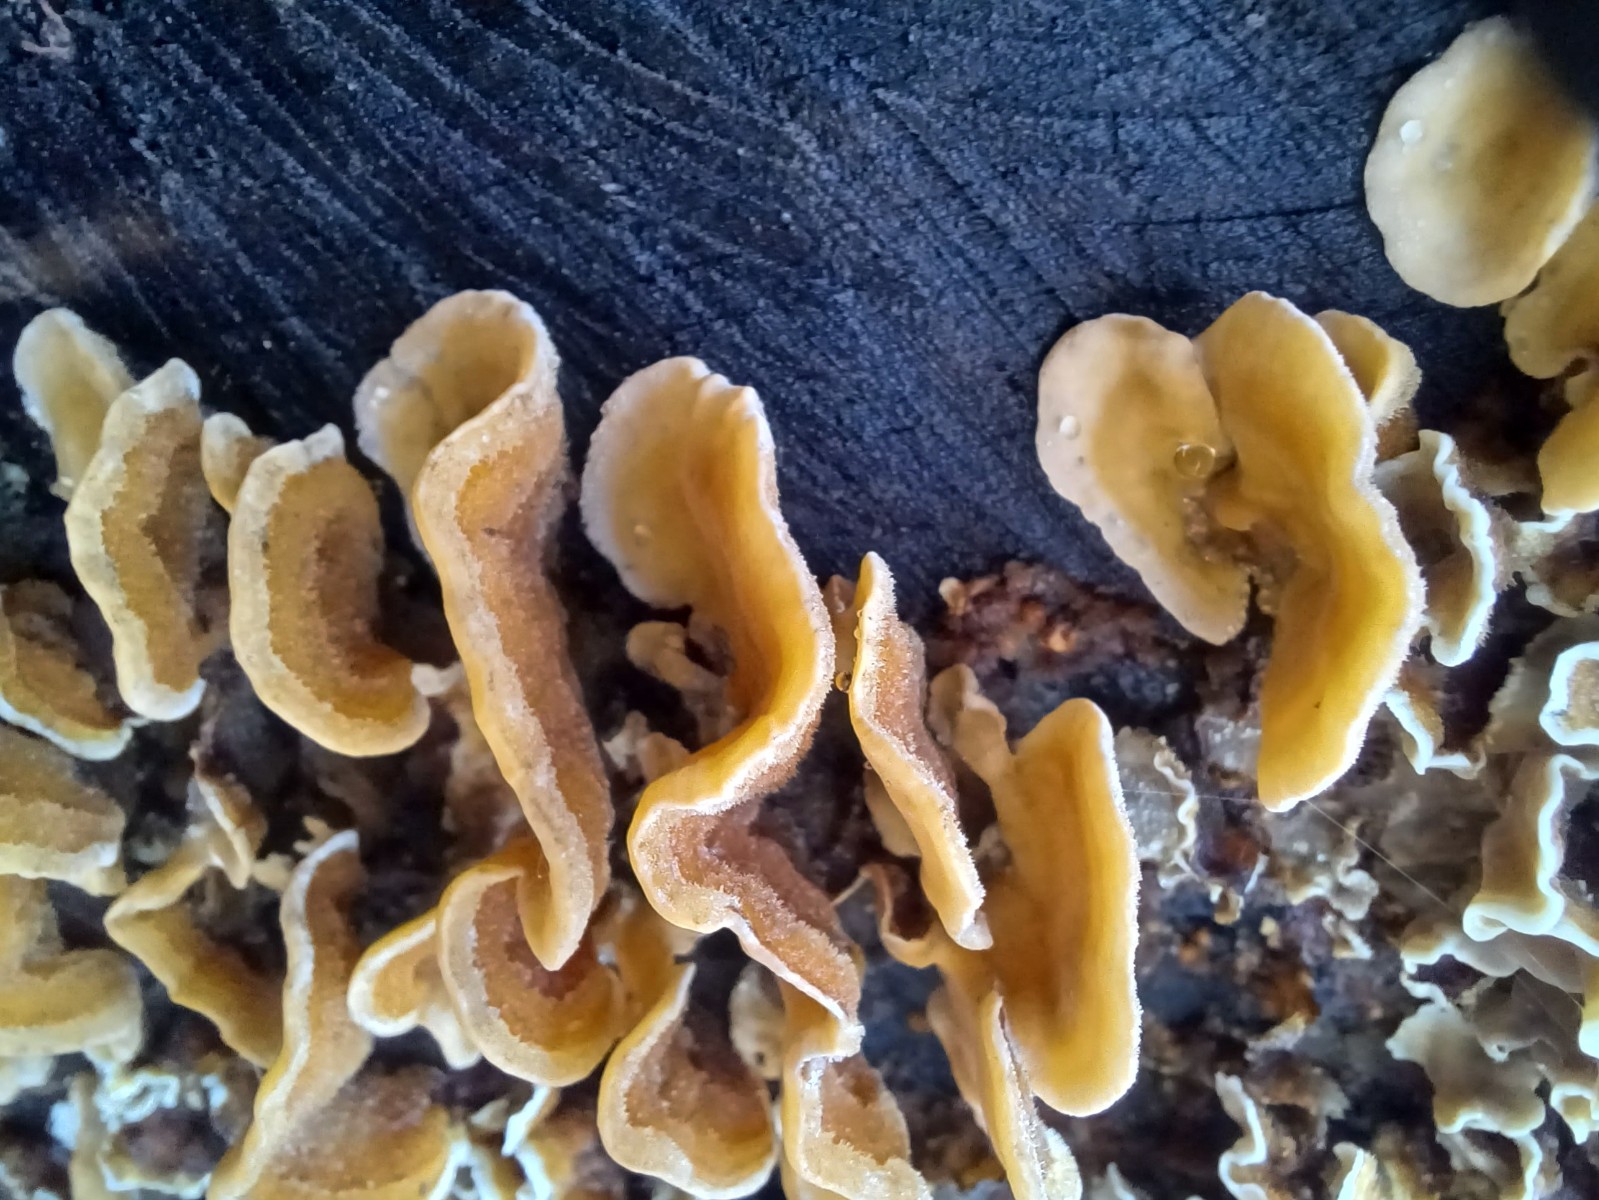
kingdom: Fungi
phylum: Basidiomycota
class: Agaricomycetes
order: Russulales
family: Stereaceae
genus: Stereum
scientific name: Stereum hirsutum
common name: håret lædersvamp
